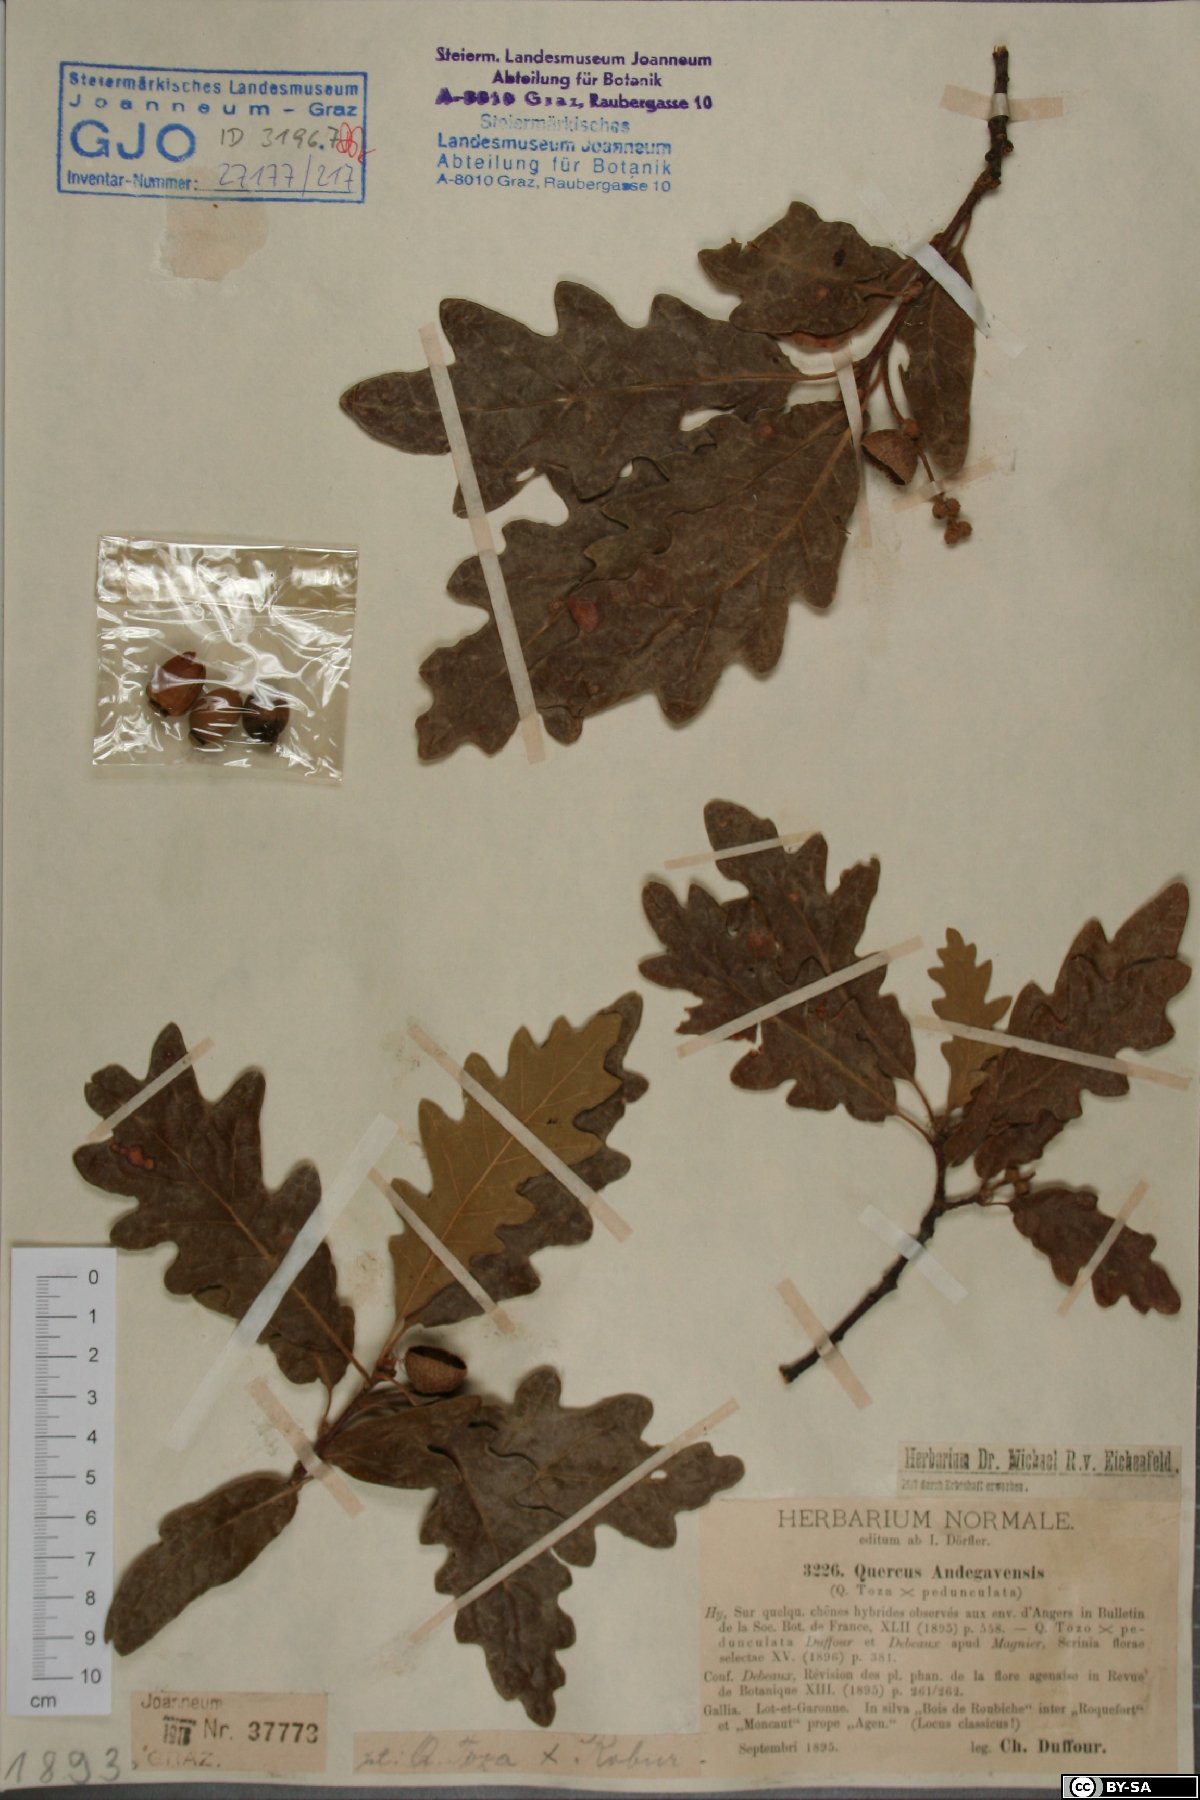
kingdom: Plantae
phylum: Tracheophyta
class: Magnoliopsida
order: Fagales
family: Fagaceae
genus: Quercus
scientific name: Quercus andegavensis
